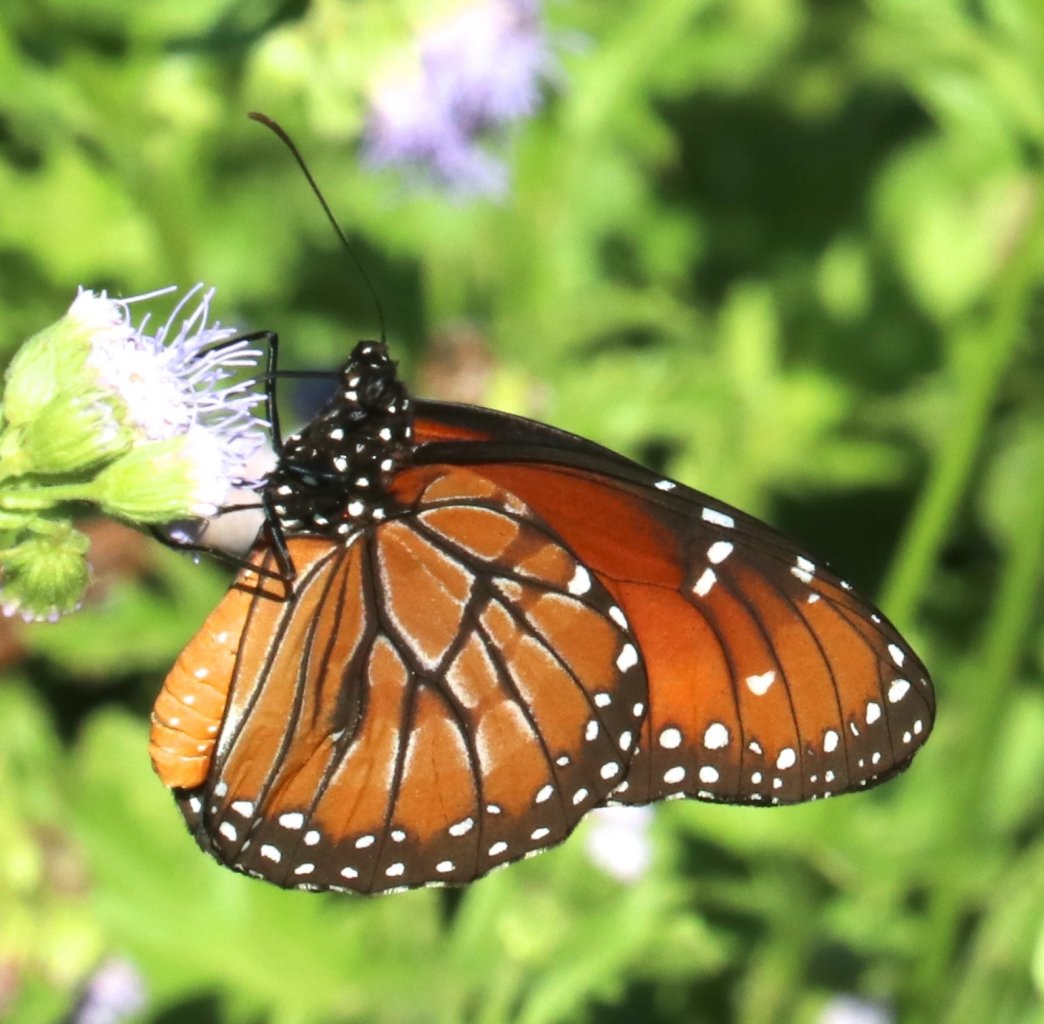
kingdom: Animalia
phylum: Arthropoda
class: Insecta
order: Lepidoptera
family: Nymphalidae
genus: Danaus
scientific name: Danaus eresimus
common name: Soldier
